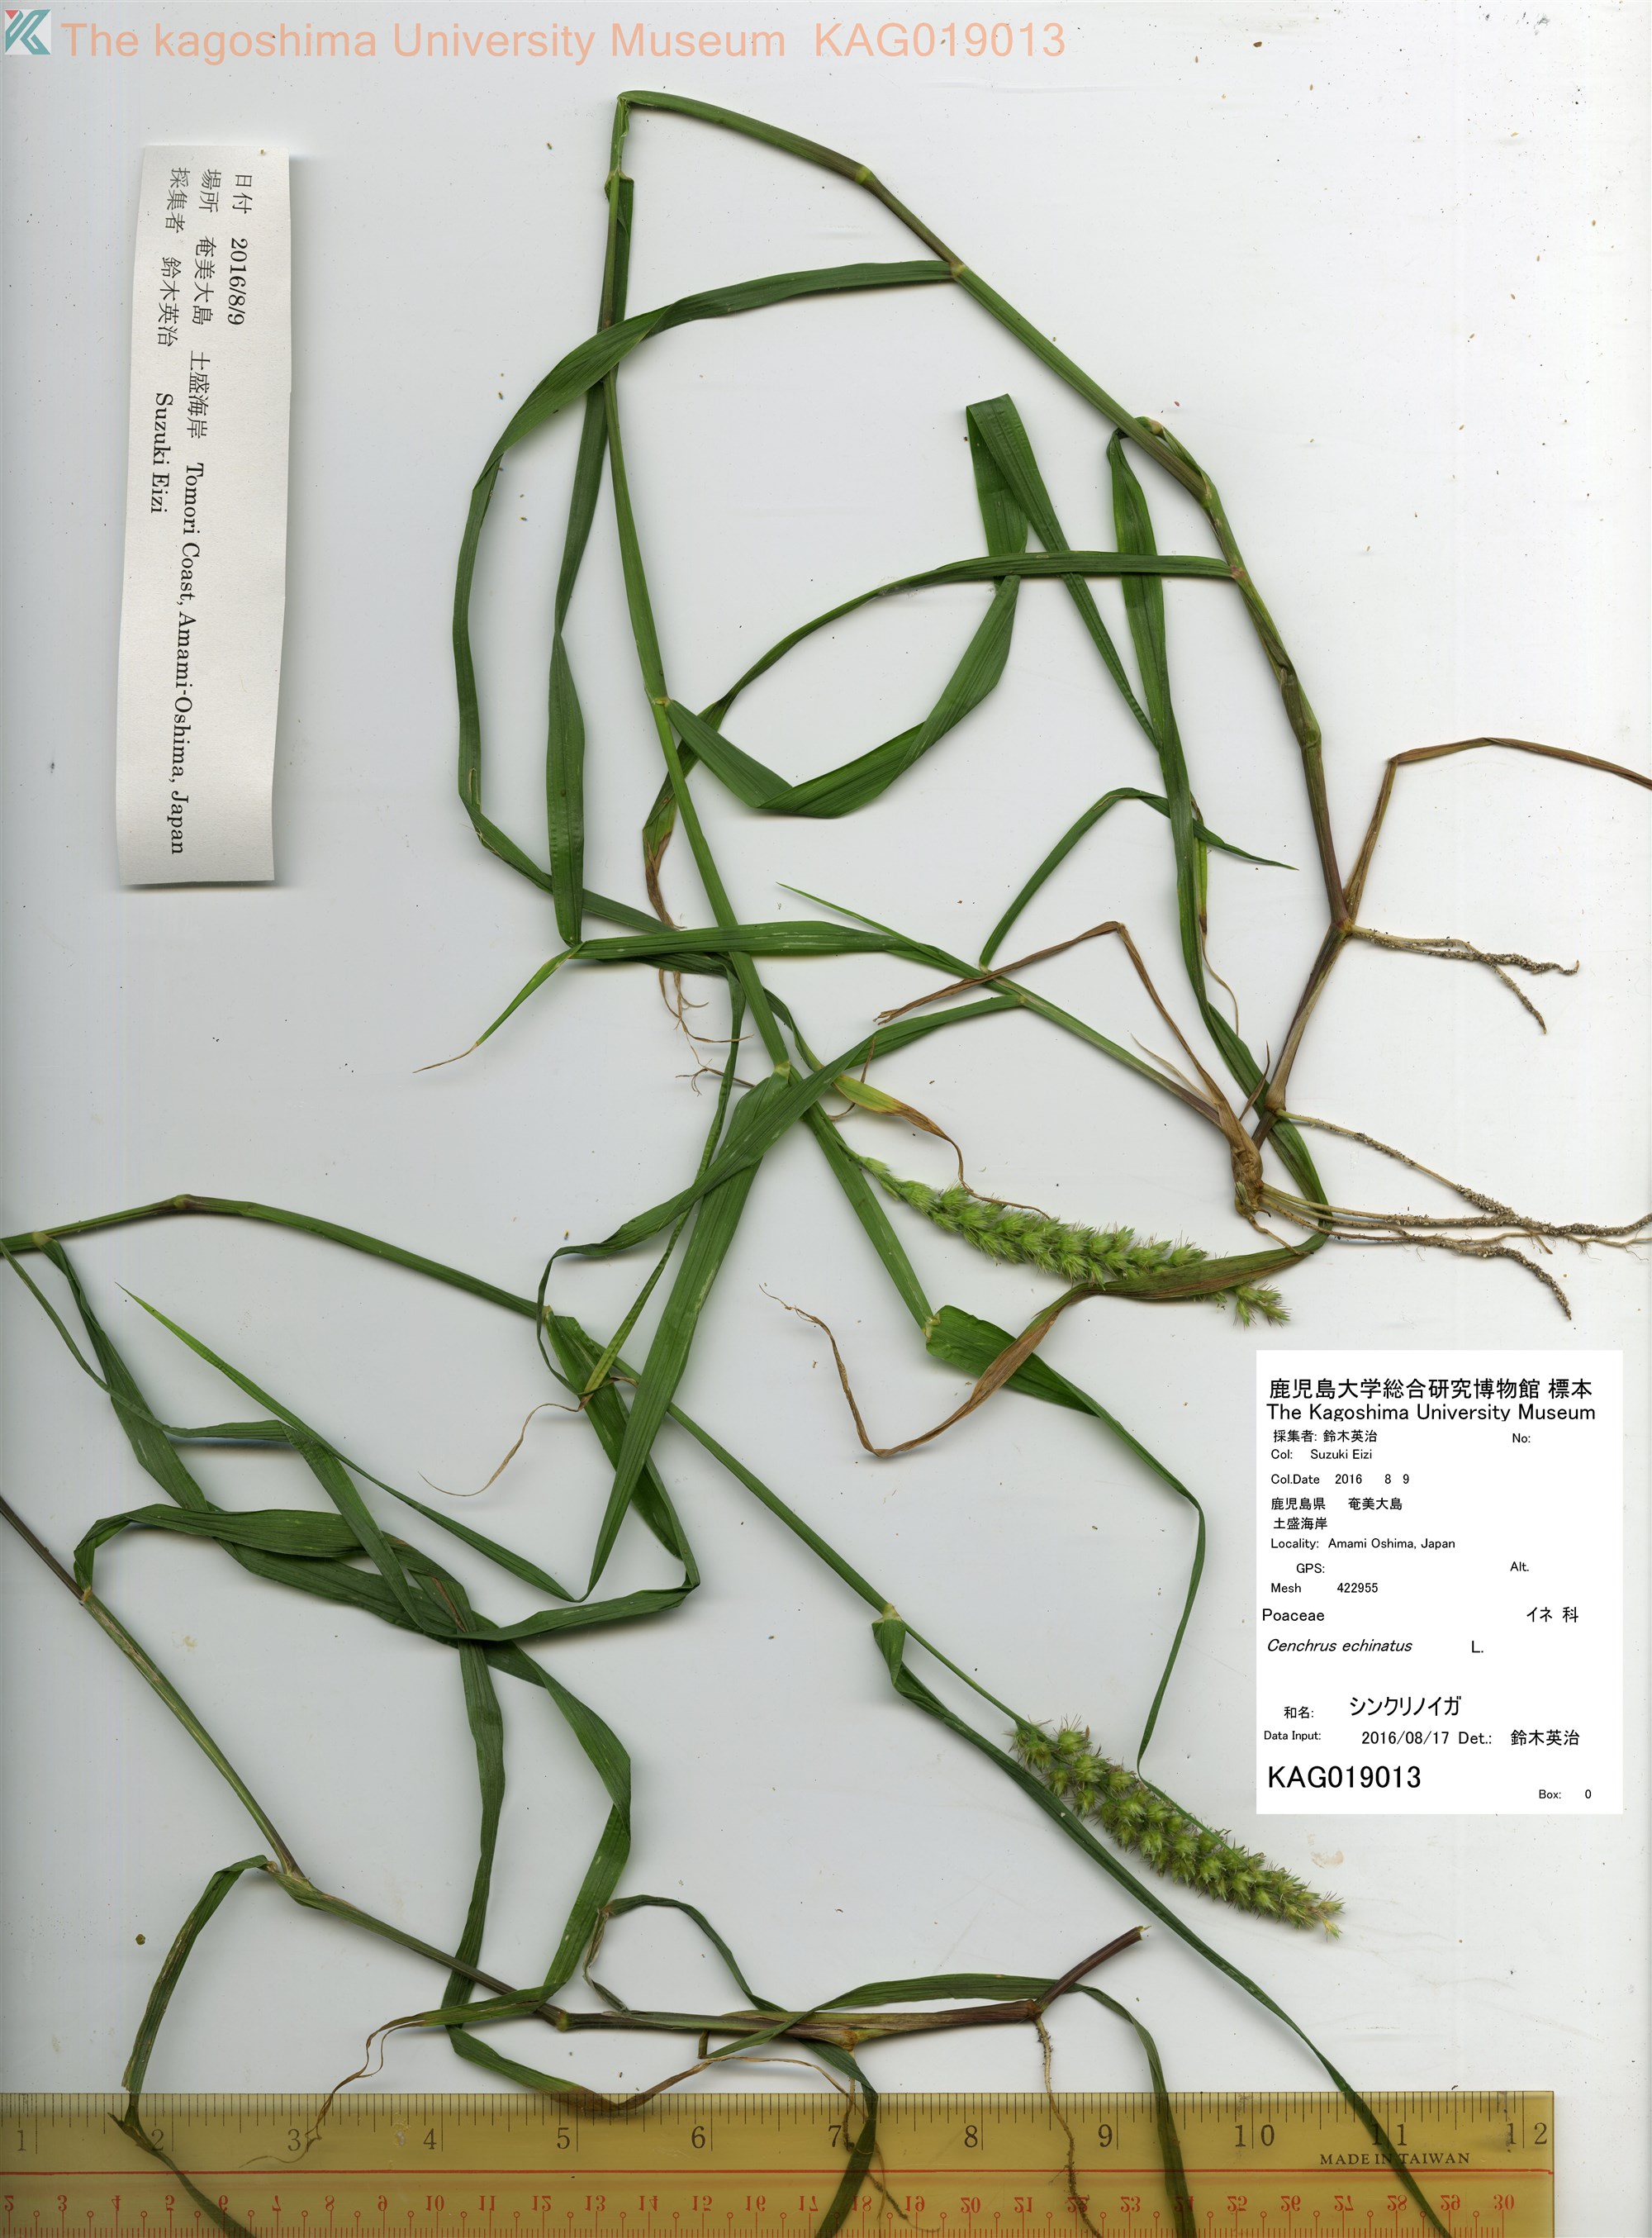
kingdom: Plantae
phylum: Tracheophyta
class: Liliopsida
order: Poales
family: Poaceae
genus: Cenchrus
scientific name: Cenchrus echinatus
